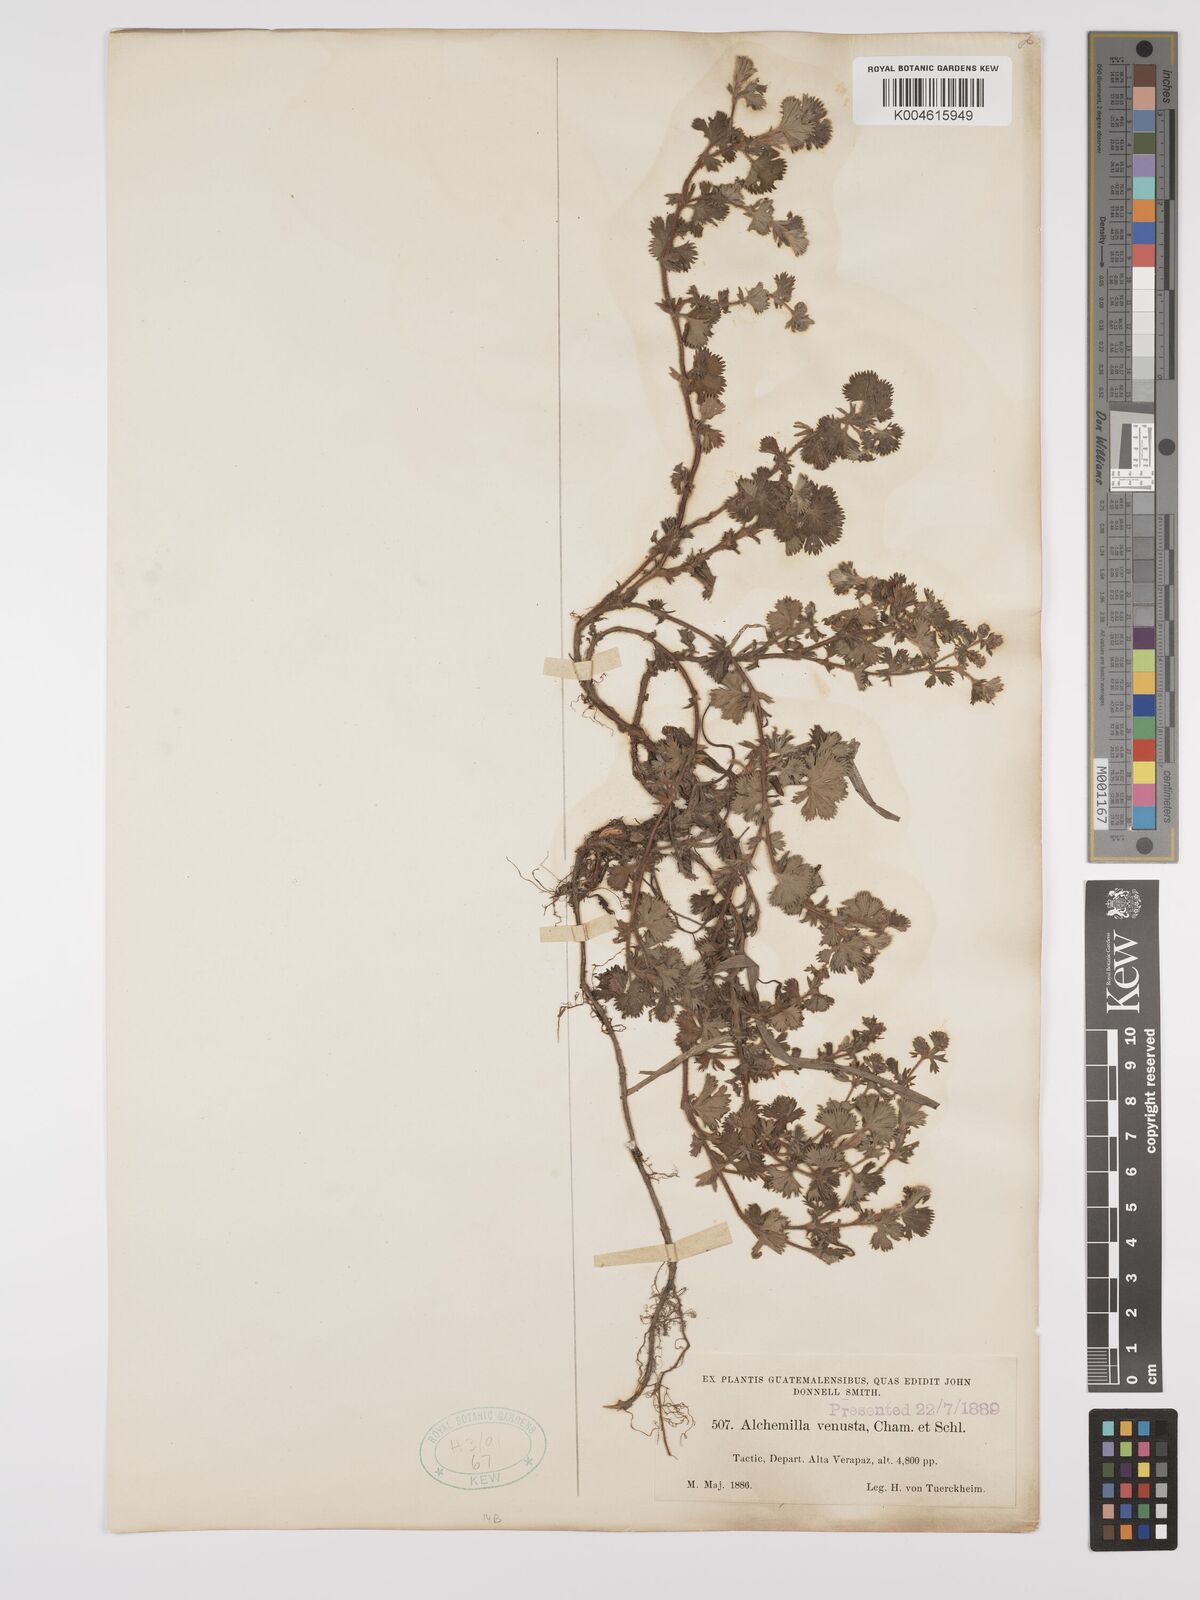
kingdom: Plantae
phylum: Tracheophyta
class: Magnoliopsida
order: Rosales
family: Rosaceae
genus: Lachemilla
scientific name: Lachemilla venusta
